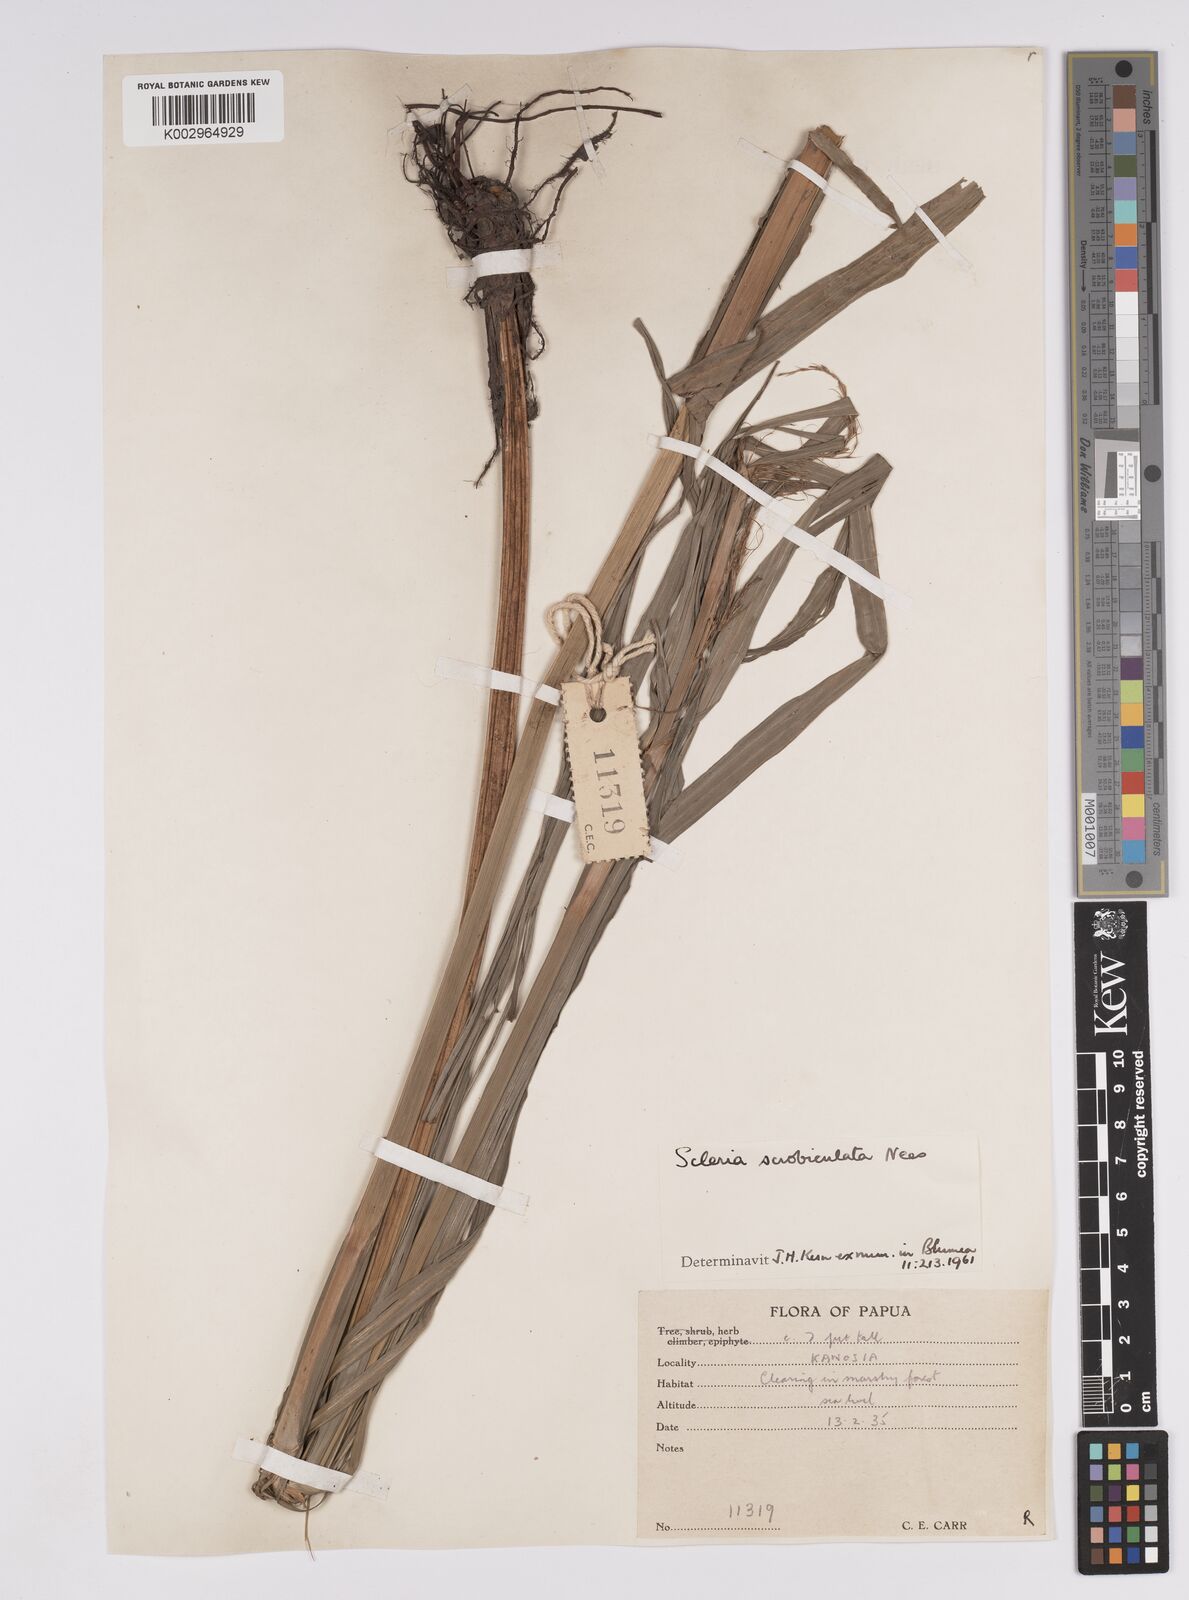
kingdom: Plantae
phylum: Tracheophyta
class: Liliopsida
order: Poales
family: Cyperaceae
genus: Scleria
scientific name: Scleria scrobiculata
